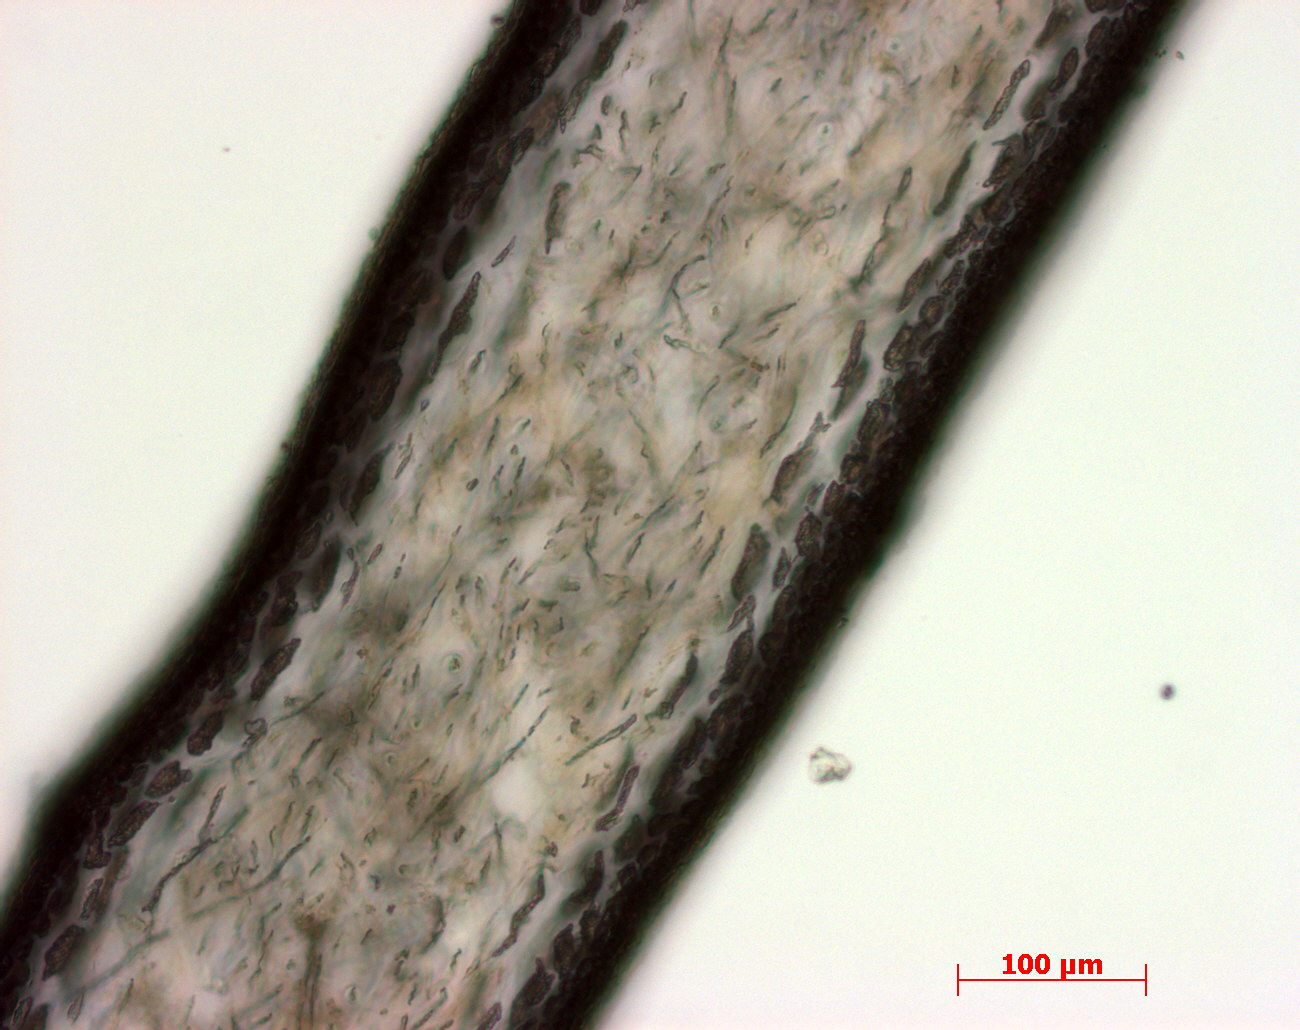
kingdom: Plantae
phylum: Rhodophyta
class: Florideophyceae
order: Gigartinales
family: Kallymeniaceae
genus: Psaromenia
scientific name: Psaromenia berggrenii
